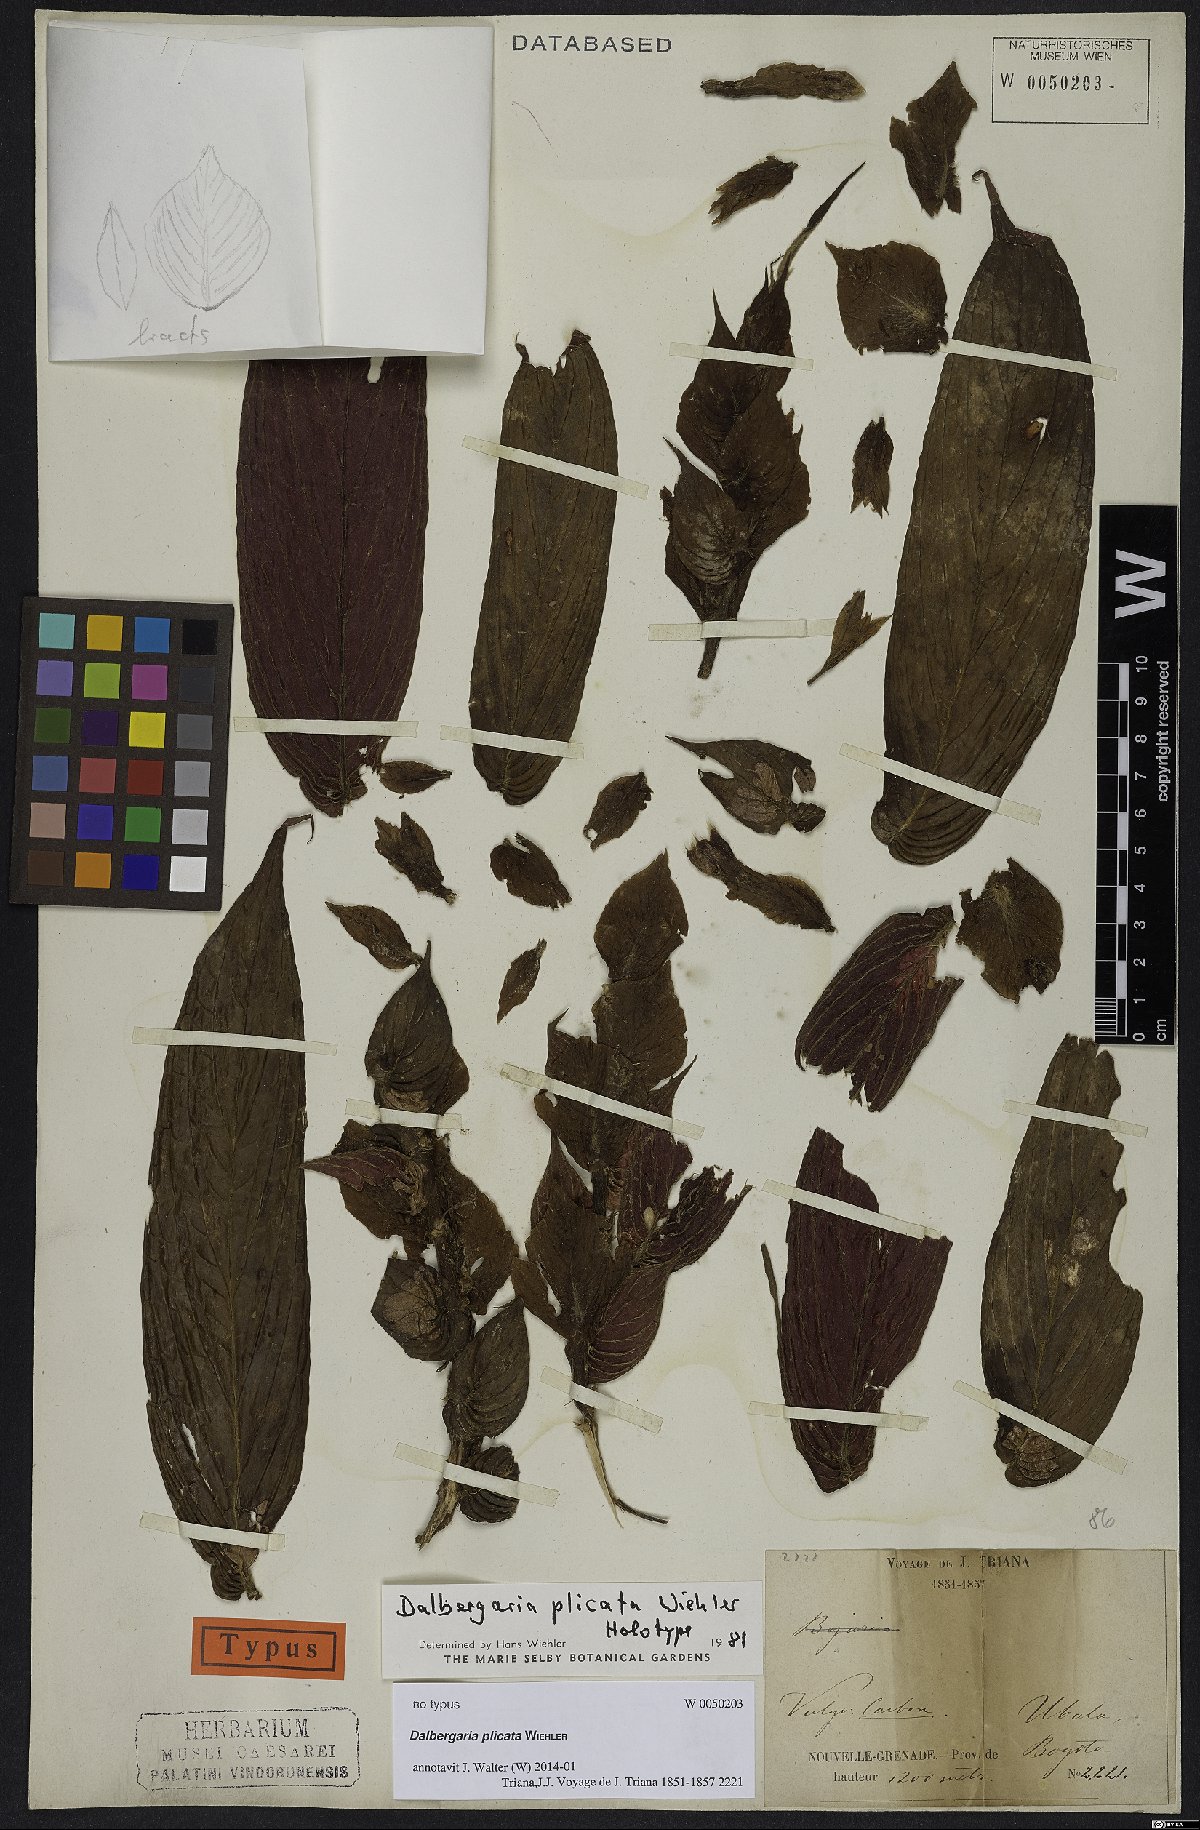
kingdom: Plantae
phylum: Tracheophyta
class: Magnoliopsida
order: Lamiales
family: Gesneriaceae
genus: Columnea
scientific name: Columnea
